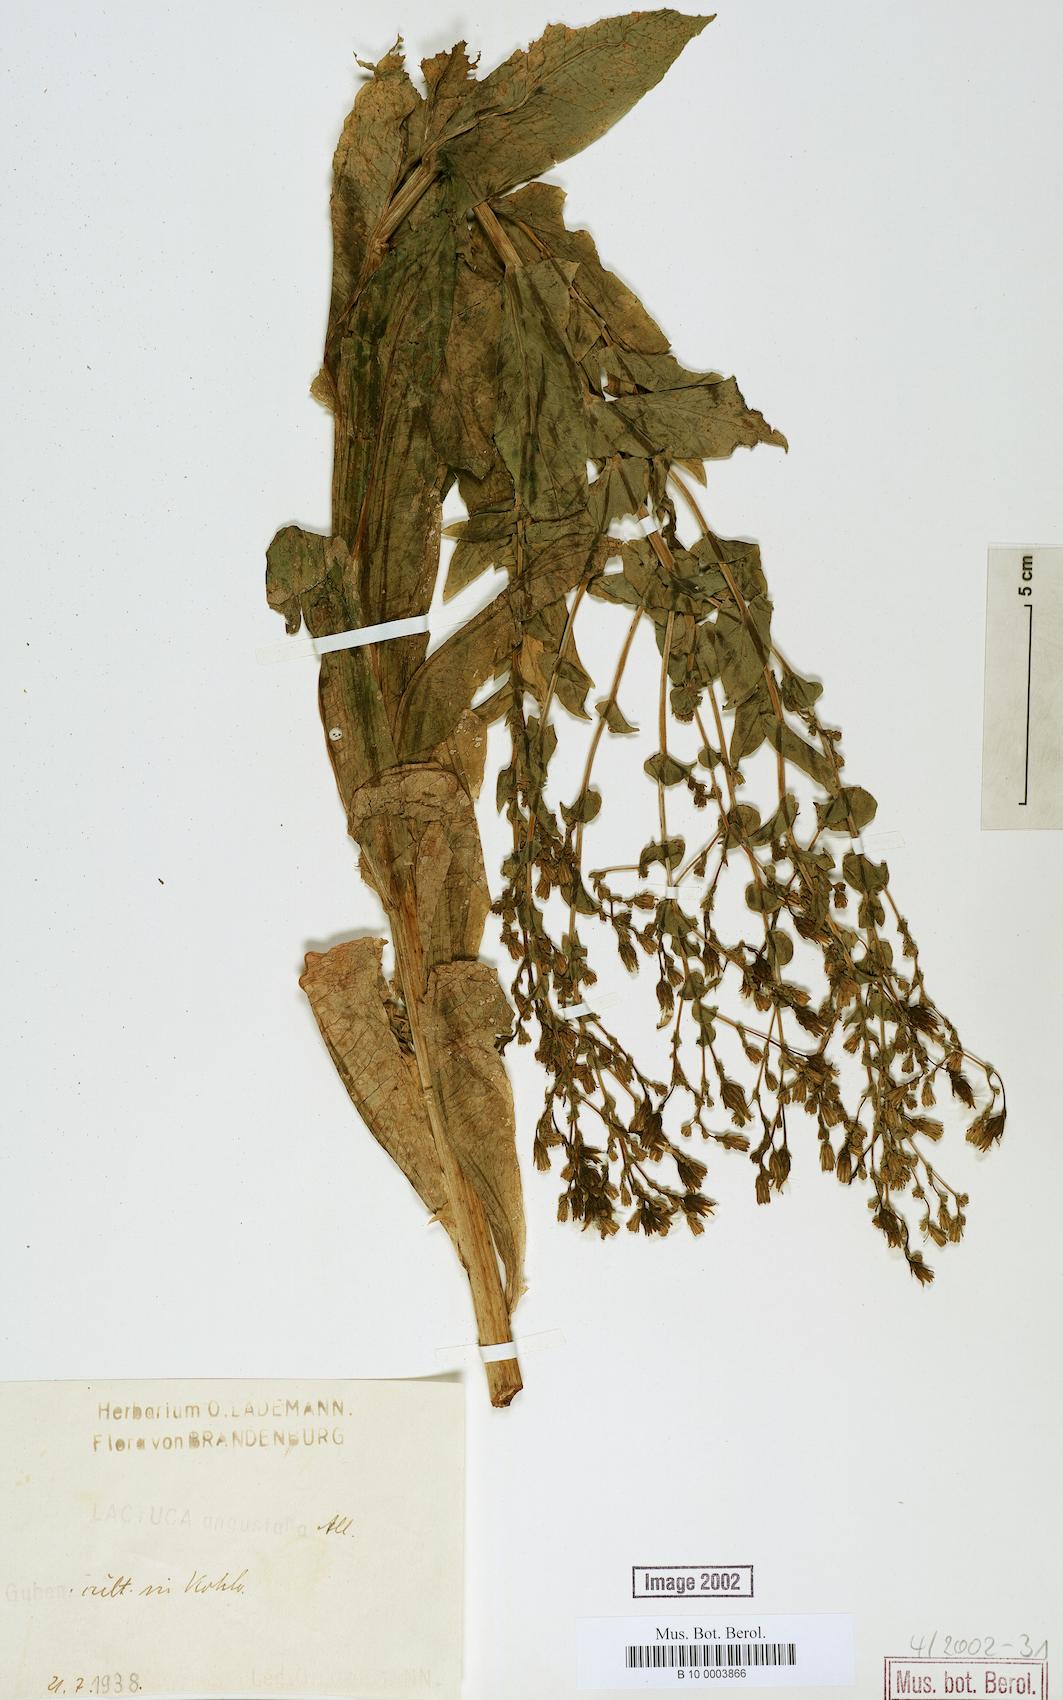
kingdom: Plantae
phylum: Tracheophyta
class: Magnoliopsida
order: Asterales
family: Asteraceae
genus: Lactuca
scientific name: Lactuca sativa
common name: Garden lettuce
